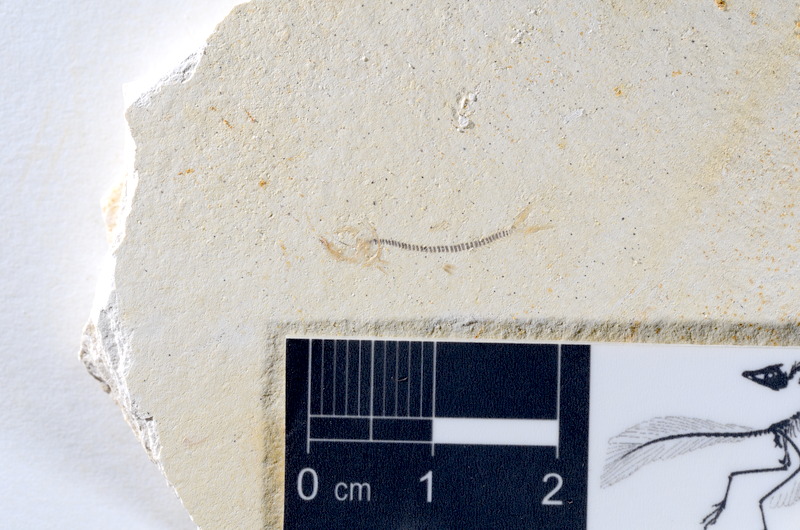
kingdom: Animalia
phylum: Chordata
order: Salmoniformes
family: Orthogonikleithridae
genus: Orthogonikleithrus
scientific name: Orthogonikleithrus hoelli
